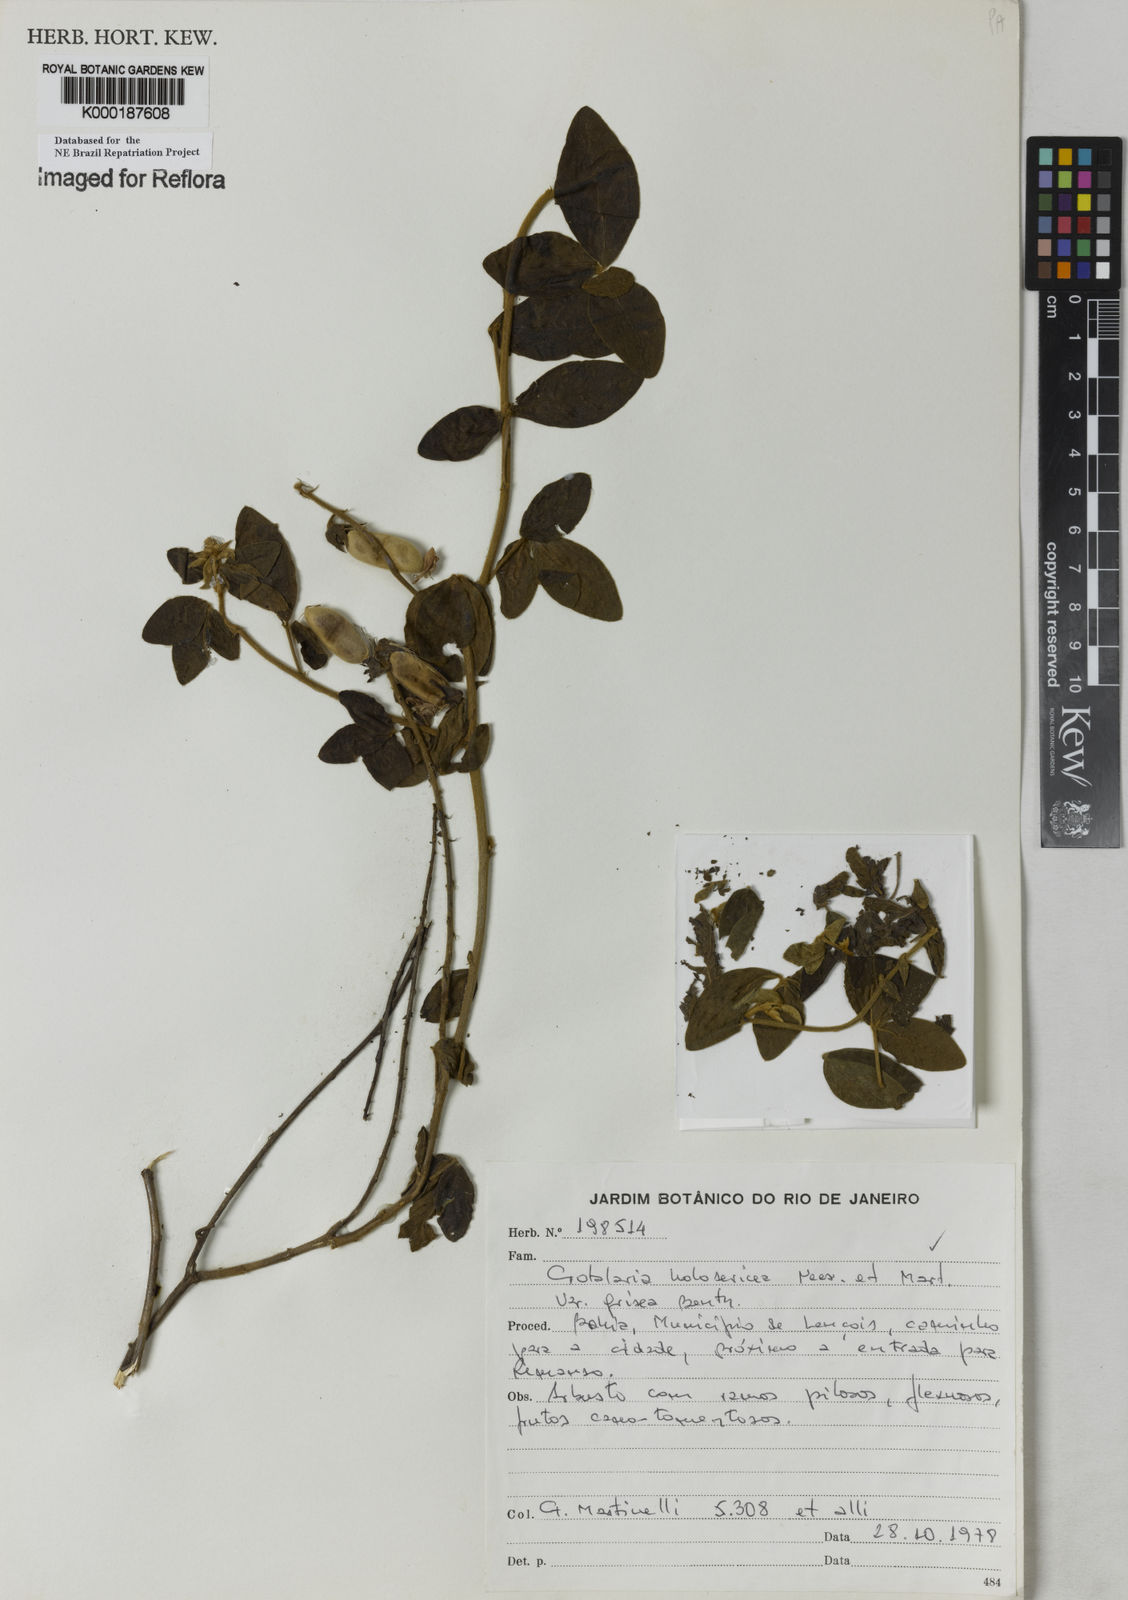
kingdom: Plantae
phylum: Tracheophyta
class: Magnoliopsida
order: Fabales
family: Fabaceae
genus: Crotalaria
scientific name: Crotalaria holosericea
